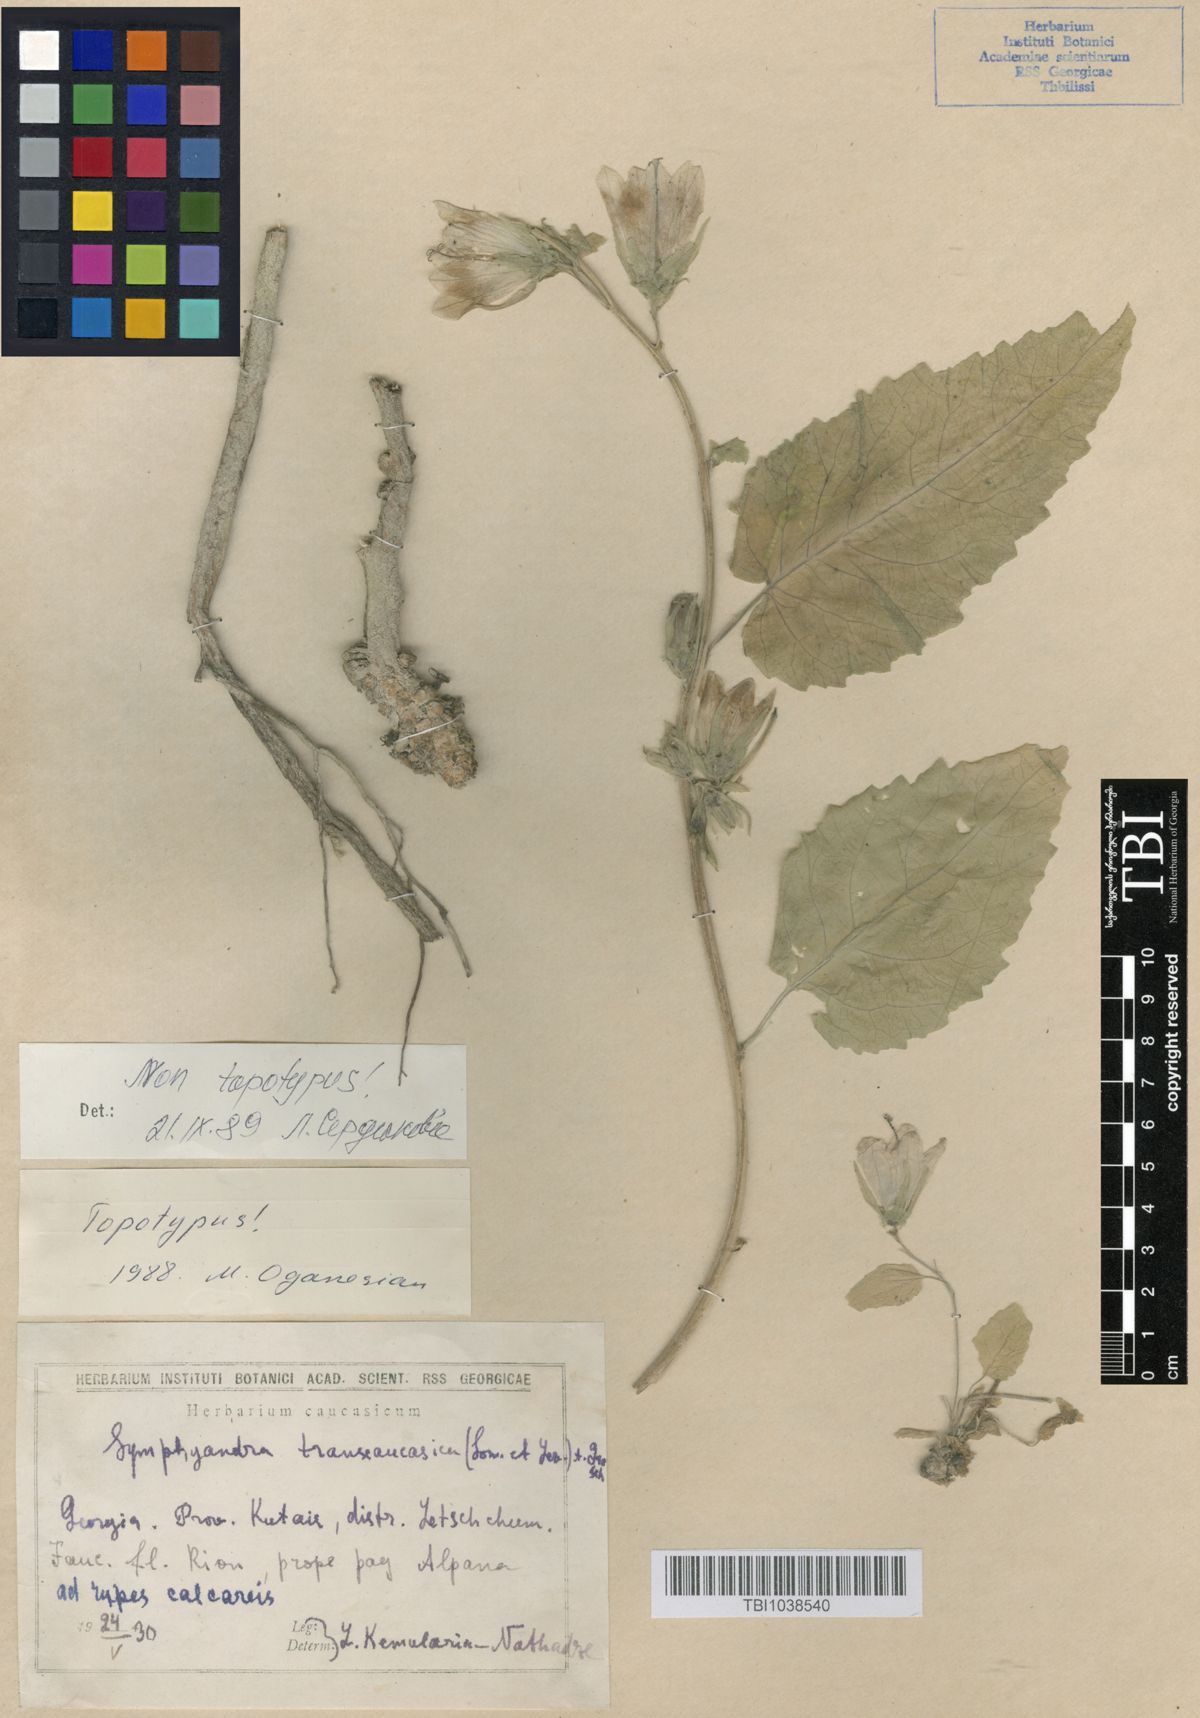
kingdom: Plantae
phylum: Tracheophyta
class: Magnoliopsida
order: Asterales
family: Campanulaceae
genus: Campanula
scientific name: Campanula pendula
